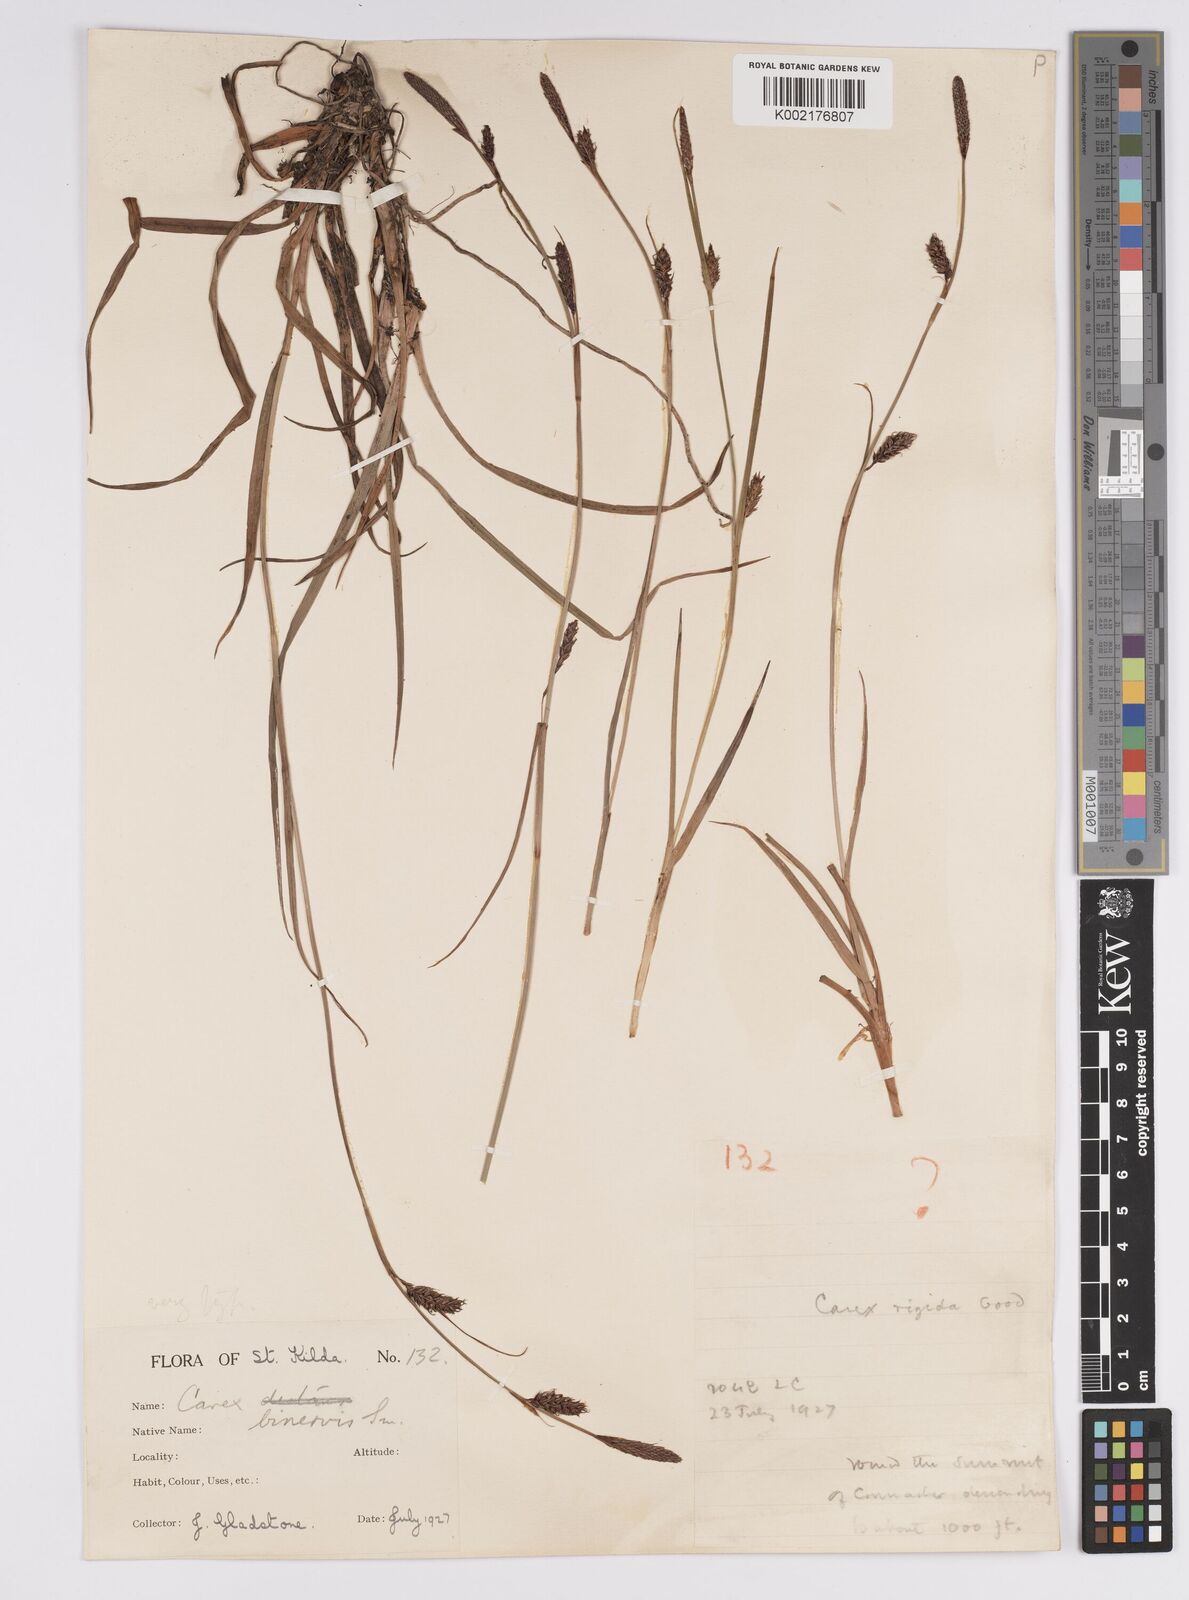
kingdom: Plantae
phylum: Tracheophyta
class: Liliopsida
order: Poales
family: Cyperaceae
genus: Carex
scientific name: Carex binervis
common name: Green-ribbed sedge
